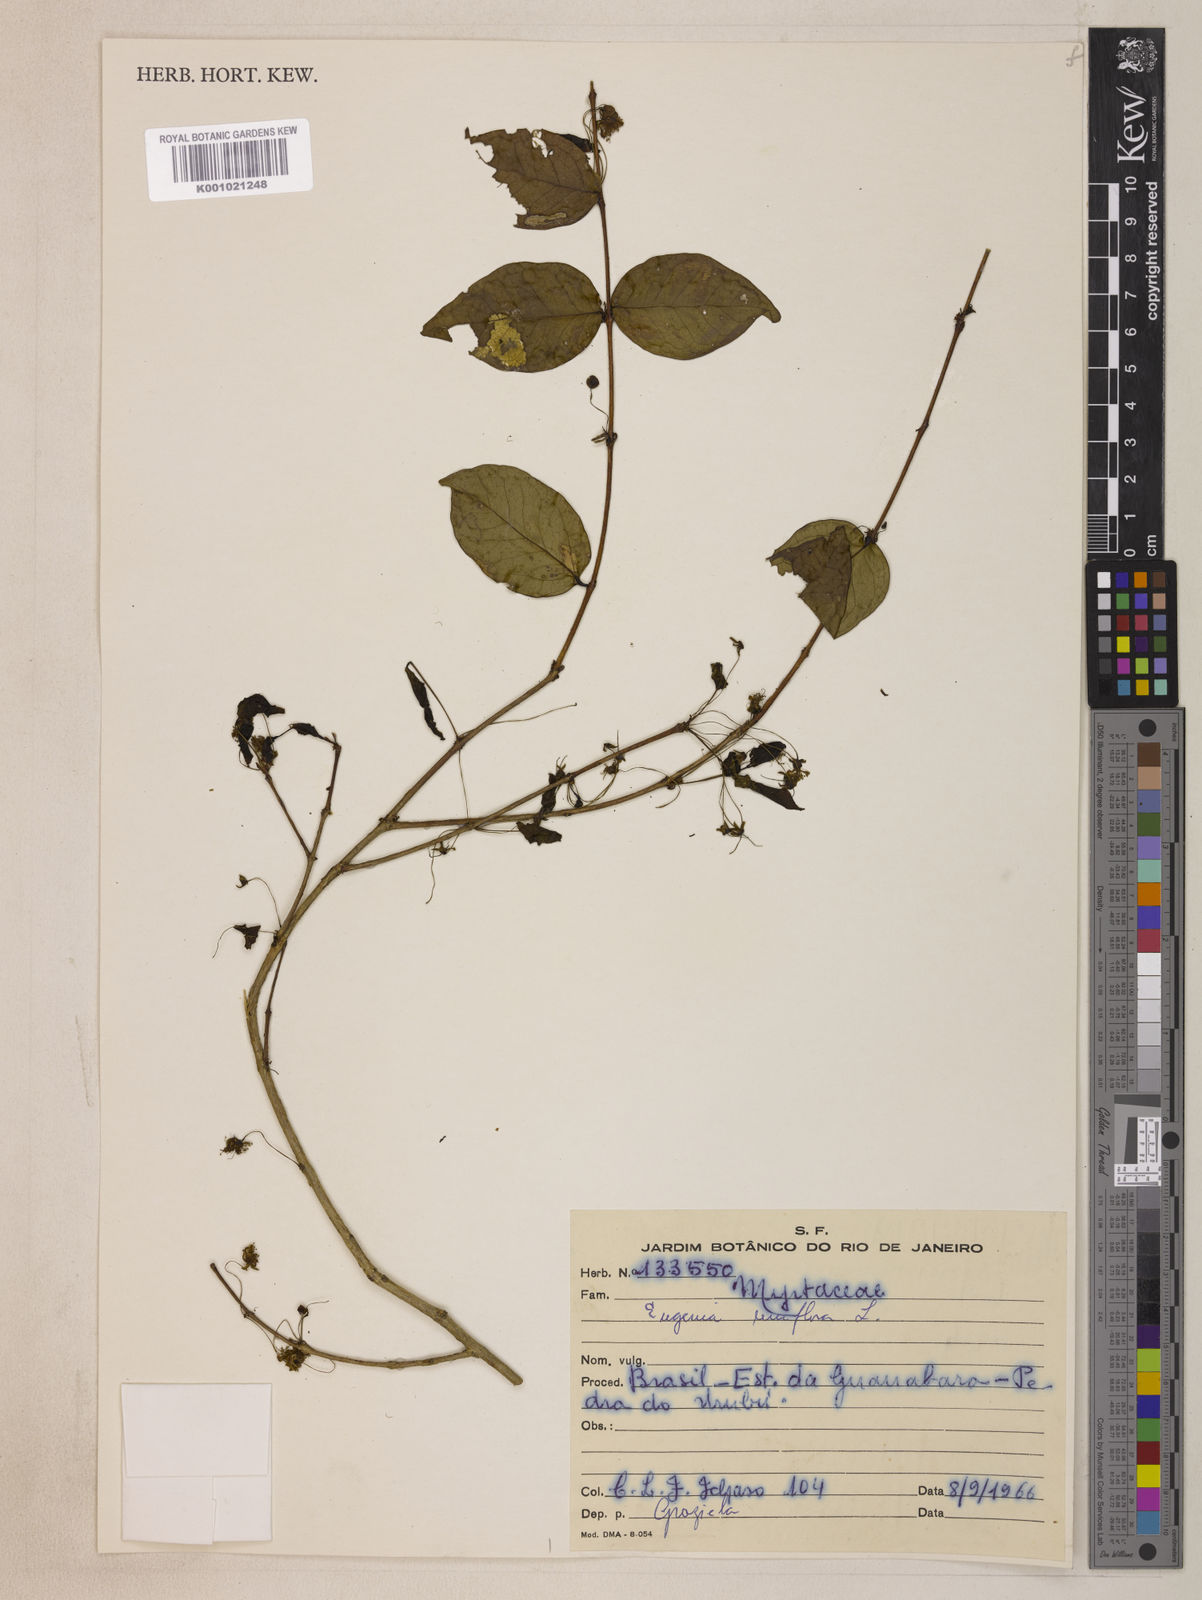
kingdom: Plantae
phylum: Tracheophyta
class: Magnoliopsida
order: Myrtales
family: Myrtaceae
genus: Eugenia
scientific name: Eugenia uniflora
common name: Surinam cherry
